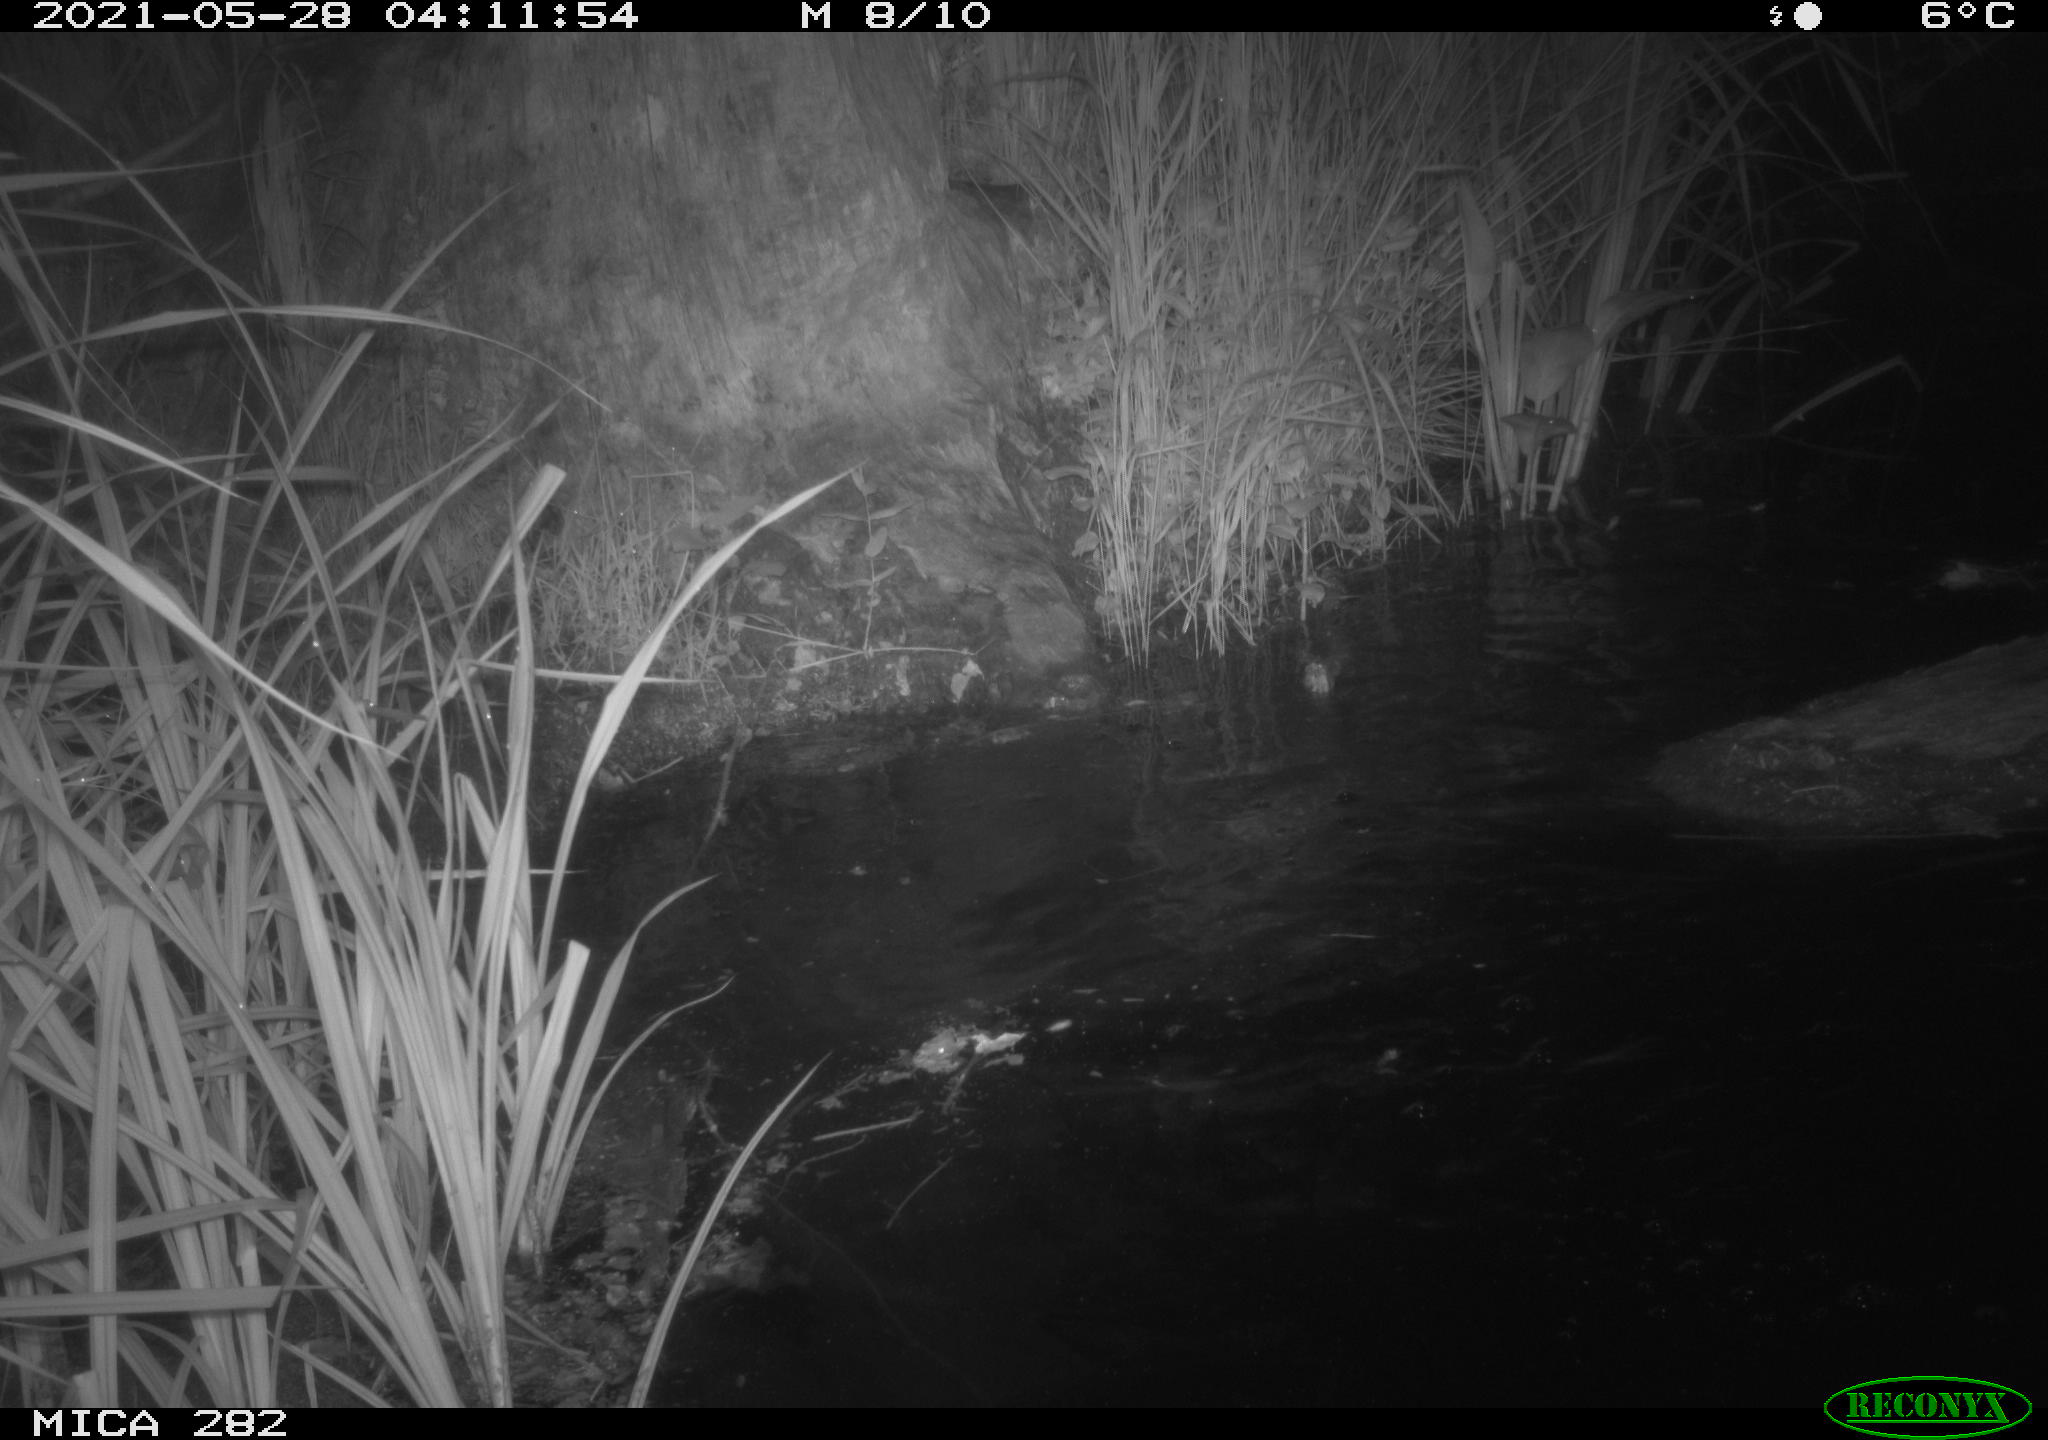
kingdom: Animalia
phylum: Chordata
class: Mammalia
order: Rodentia
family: Castoridae
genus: Castor
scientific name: Castor fiber
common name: Eurasian beaver
